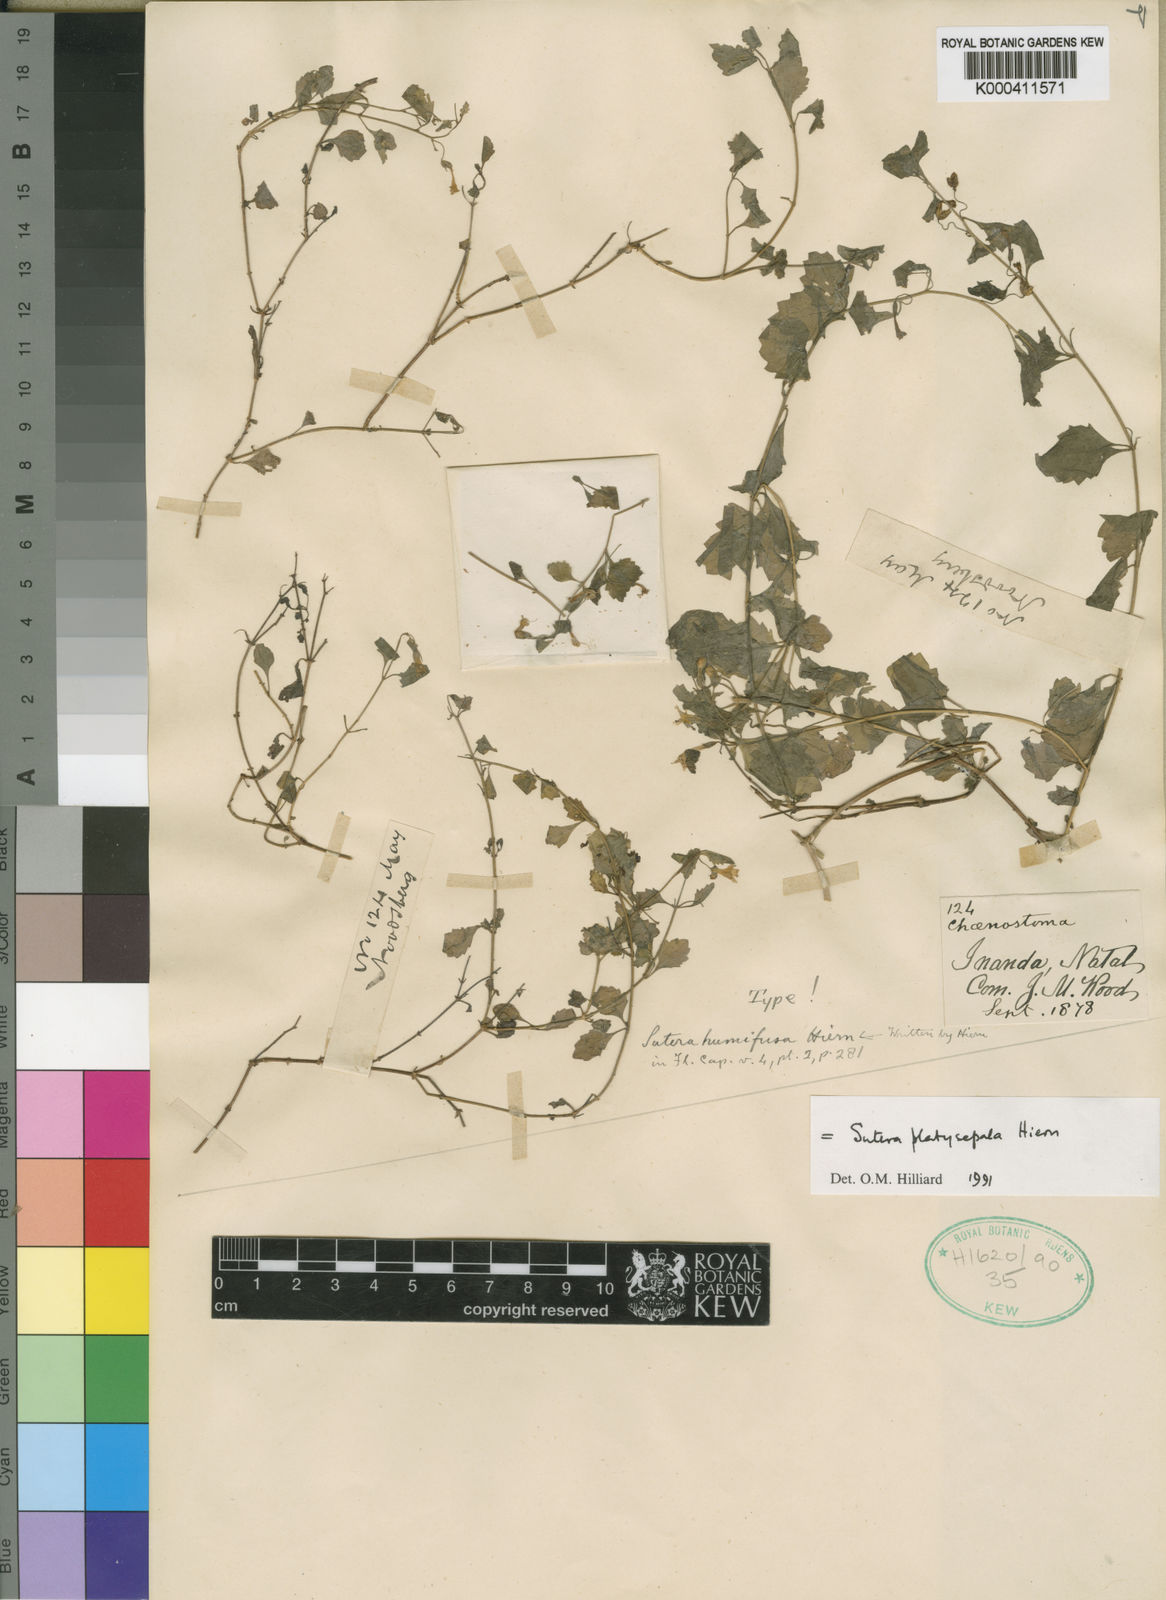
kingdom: Plantae
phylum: Tracheophyta
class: Magnoliopsida
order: Lamiales
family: Scrophulariaceae
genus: Chaenostoma
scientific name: Chaenostoma platysepalum
